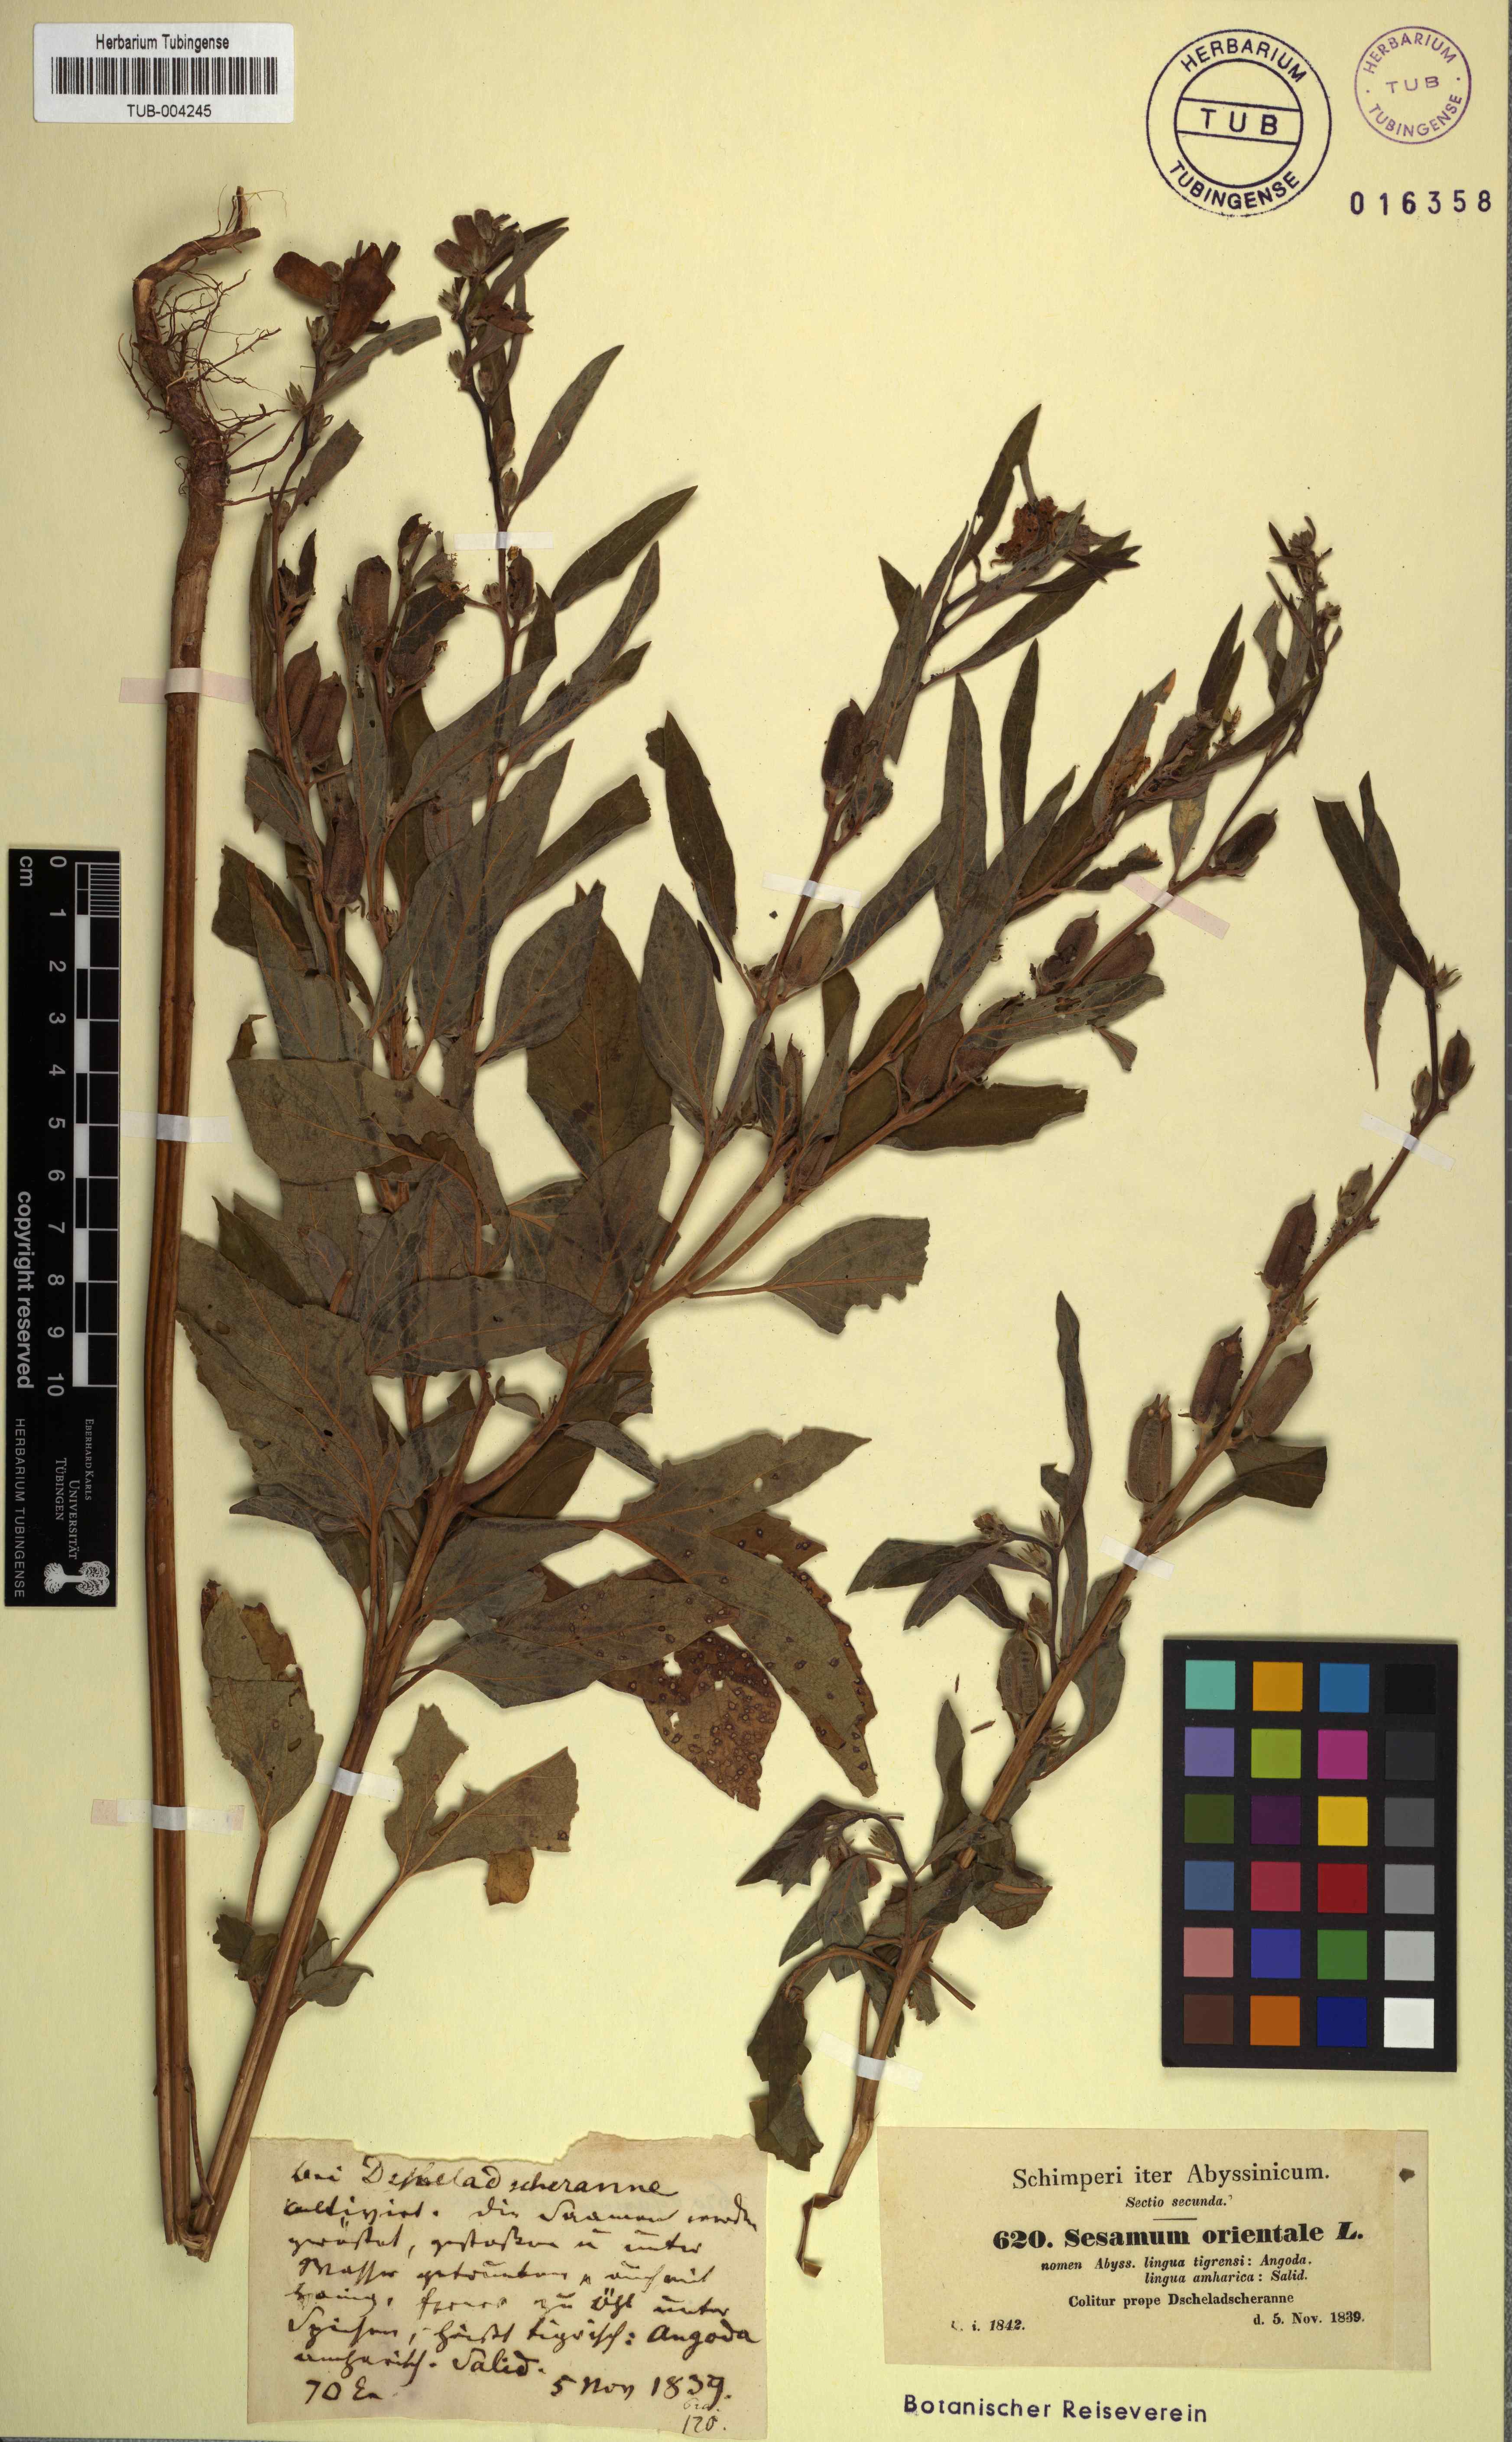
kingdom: Plantae
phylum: Tracheophyta
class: Magnoliopsida
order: Lamiales
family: Pedaliaceae
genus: Sesamum
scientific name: Sesamum indicum
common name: Sesame
